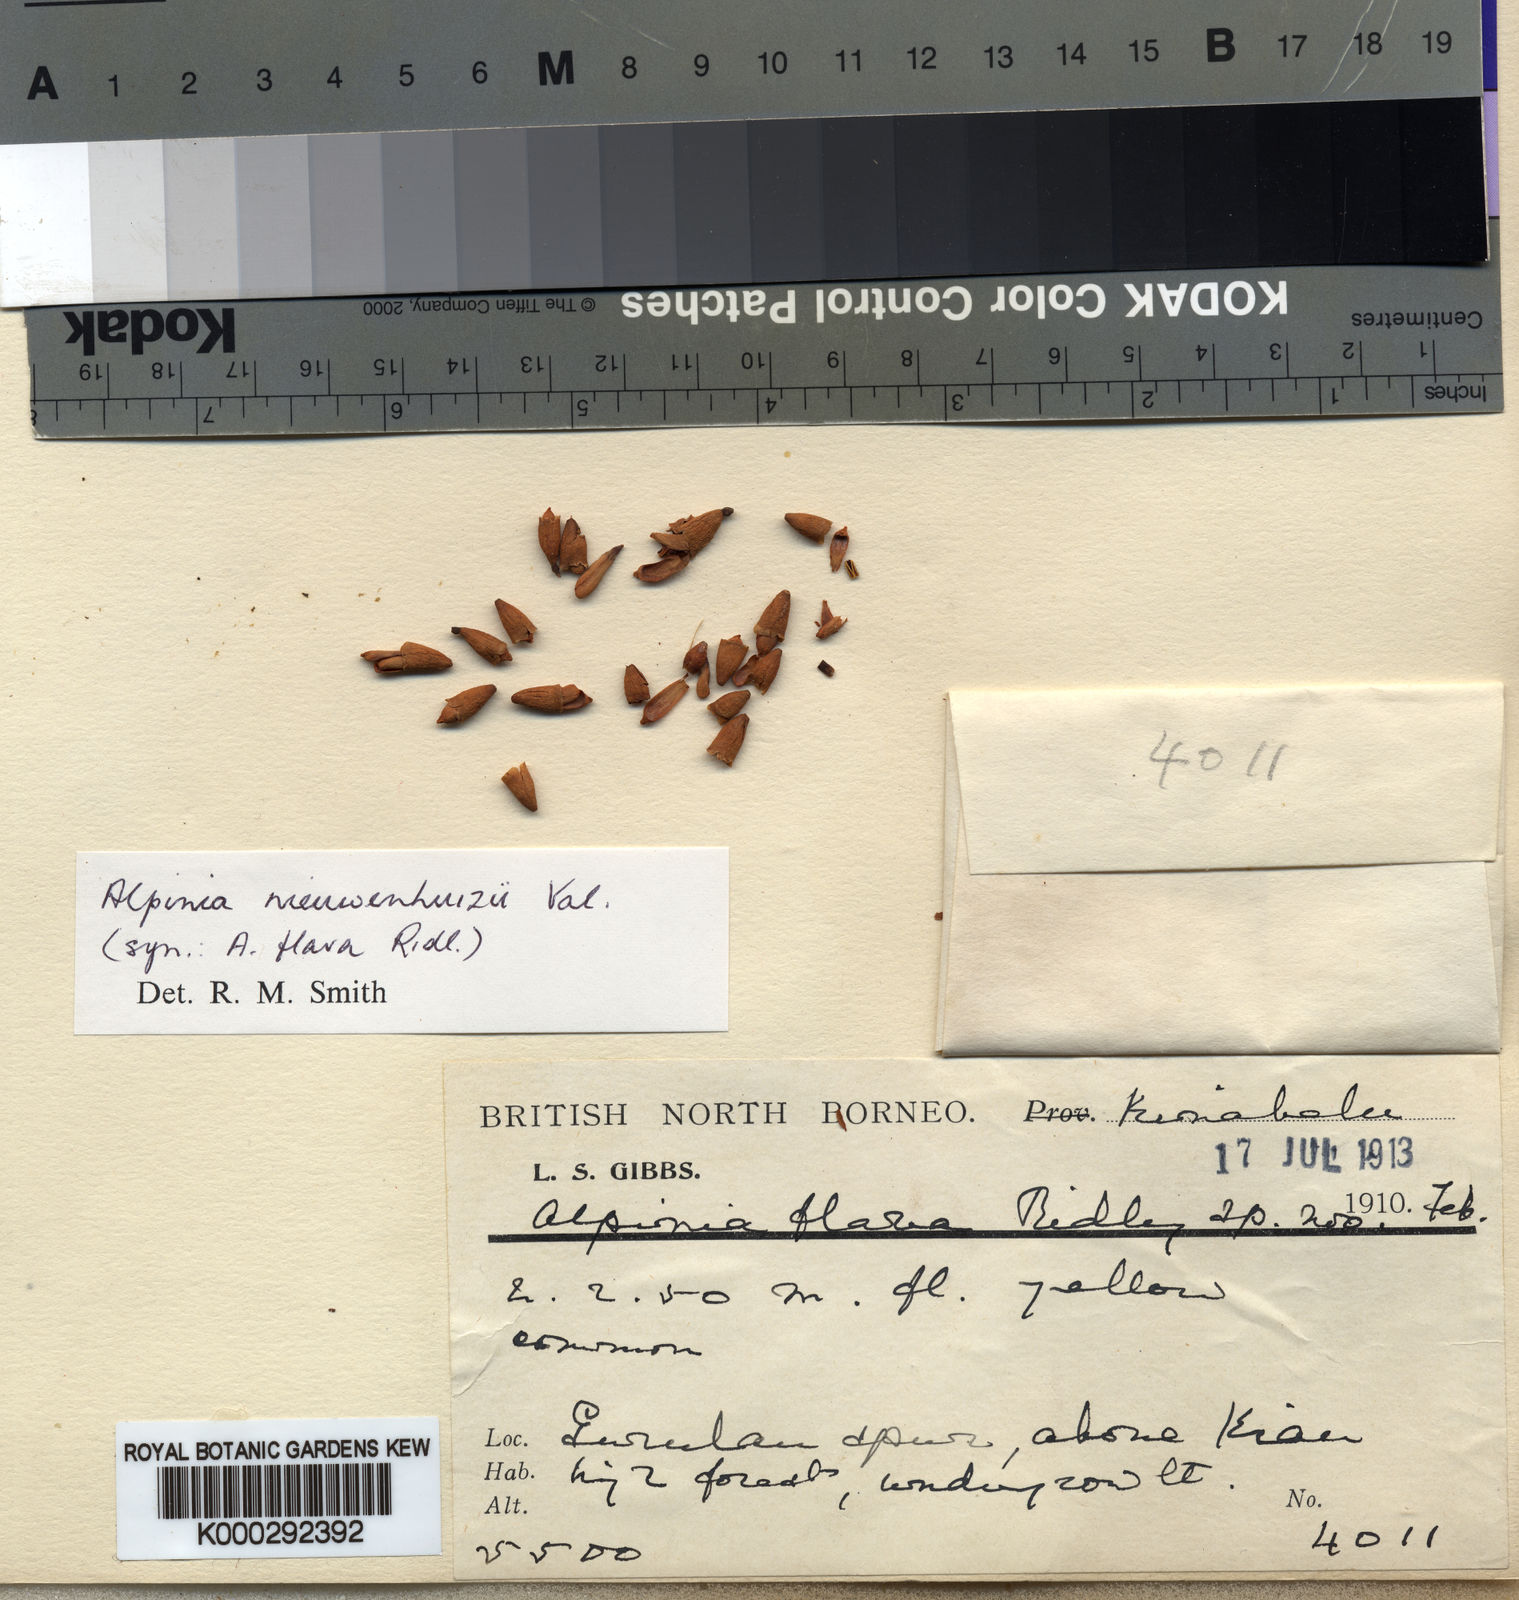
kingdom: Plantae
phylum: Tracheophyta
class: Liliopsida
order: Zingiberales
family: Zingiberaceae
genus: Alpinia
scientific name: Alpinia nieuwenhuizii
